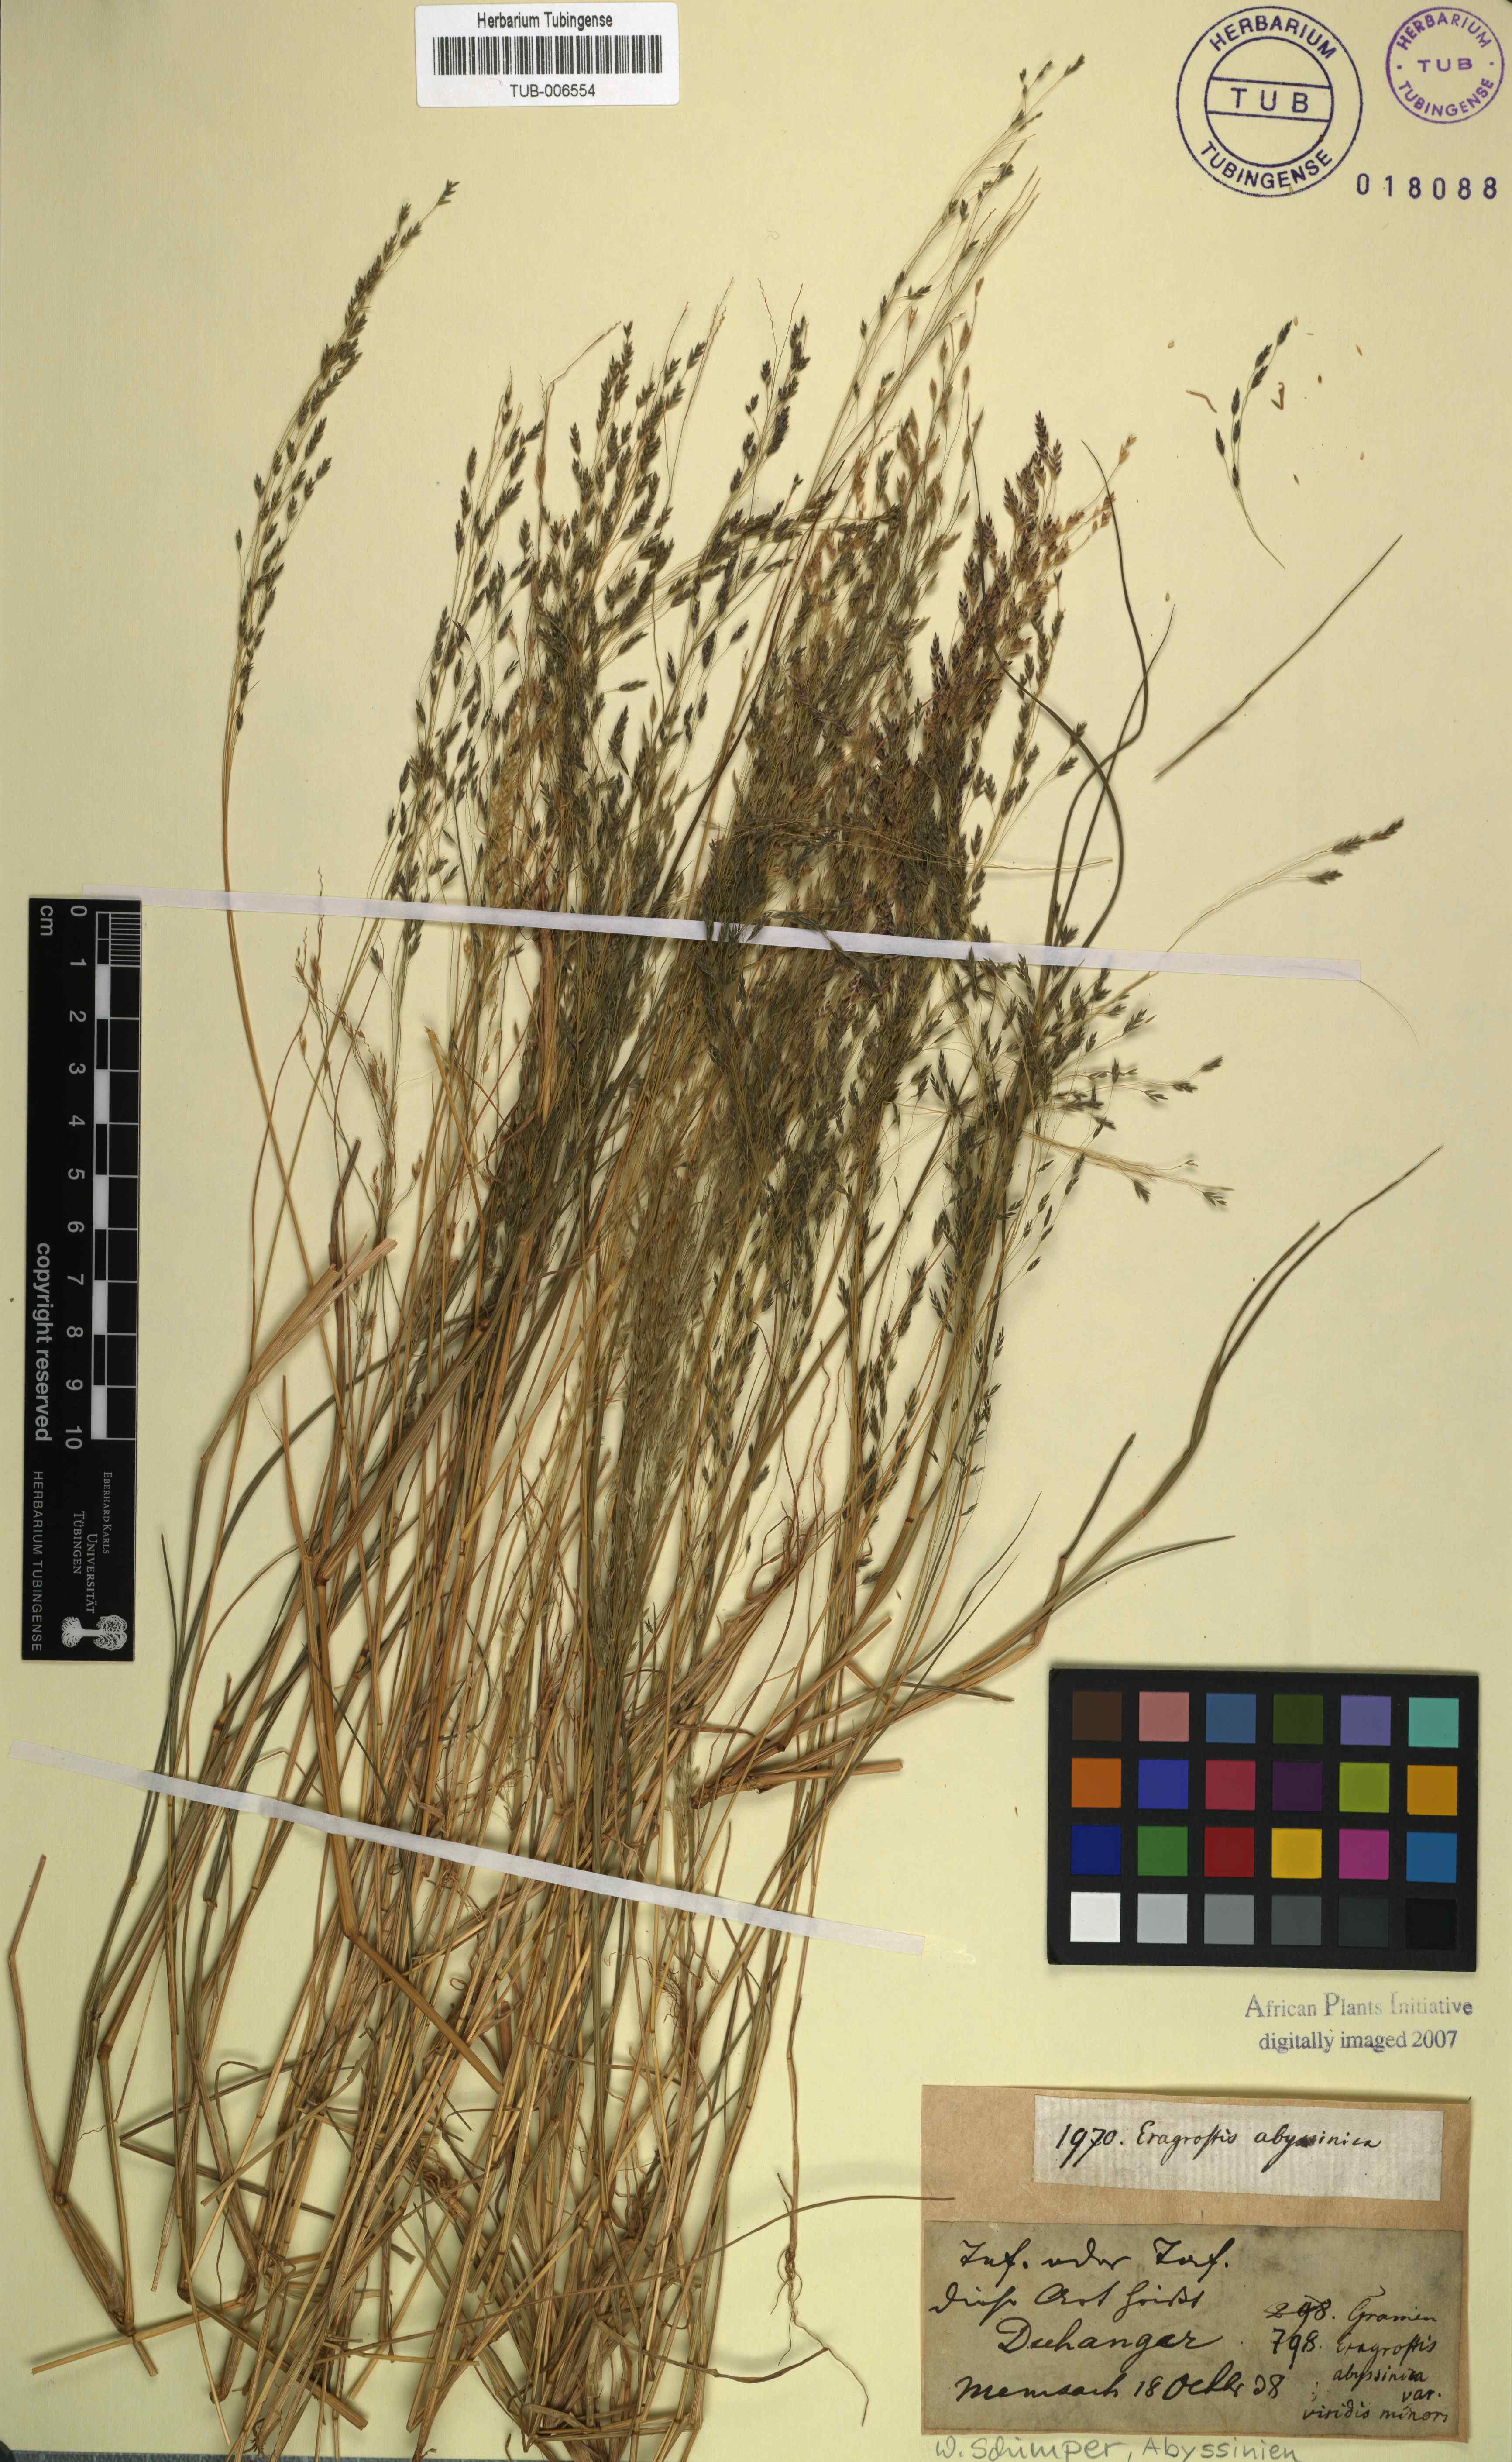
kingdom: Plantae
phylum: Tracheophyta
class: Liliopsida
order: Poales
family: Poaceae
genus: Eragrostis
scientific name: Eragrostis tef
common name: Teff
